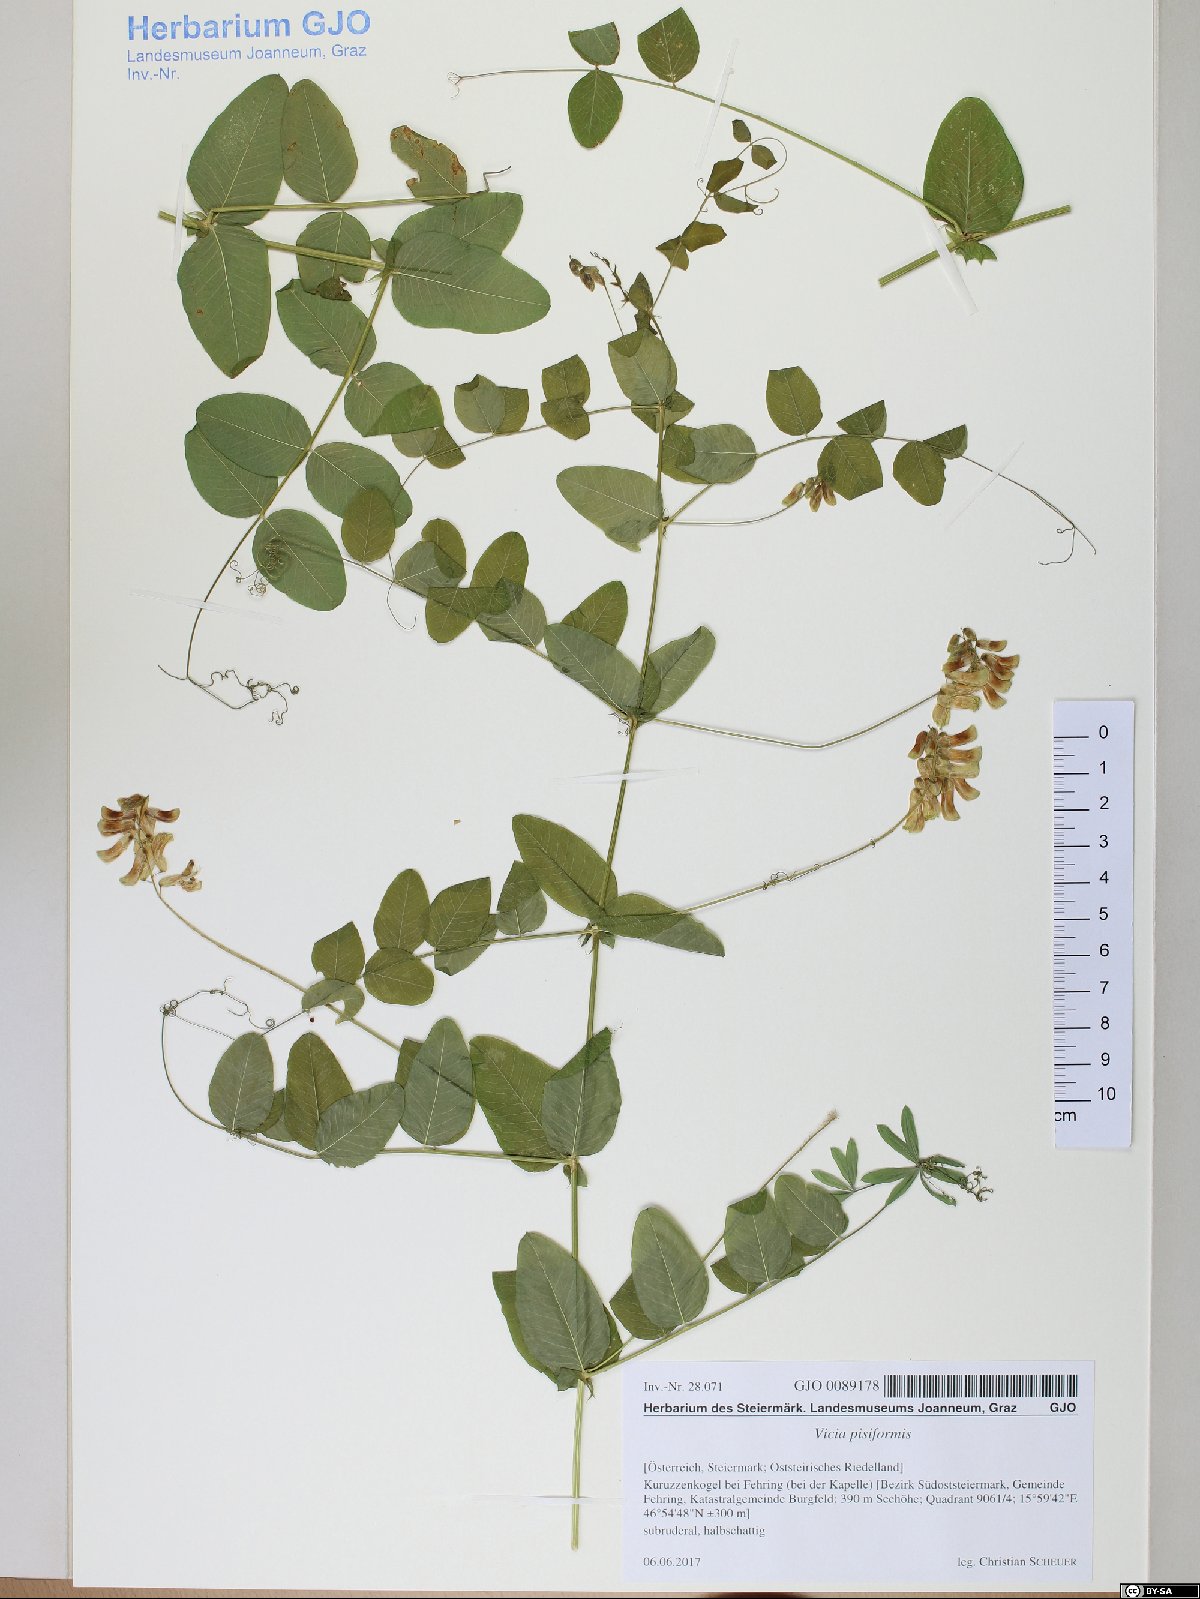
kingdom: Plantae
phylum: Tracheophyta
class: Magnoliopsida
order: Fabales
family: Fabaceae
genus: Vicia
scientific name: Vicia pisiformis
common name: Pale-flower vetch
